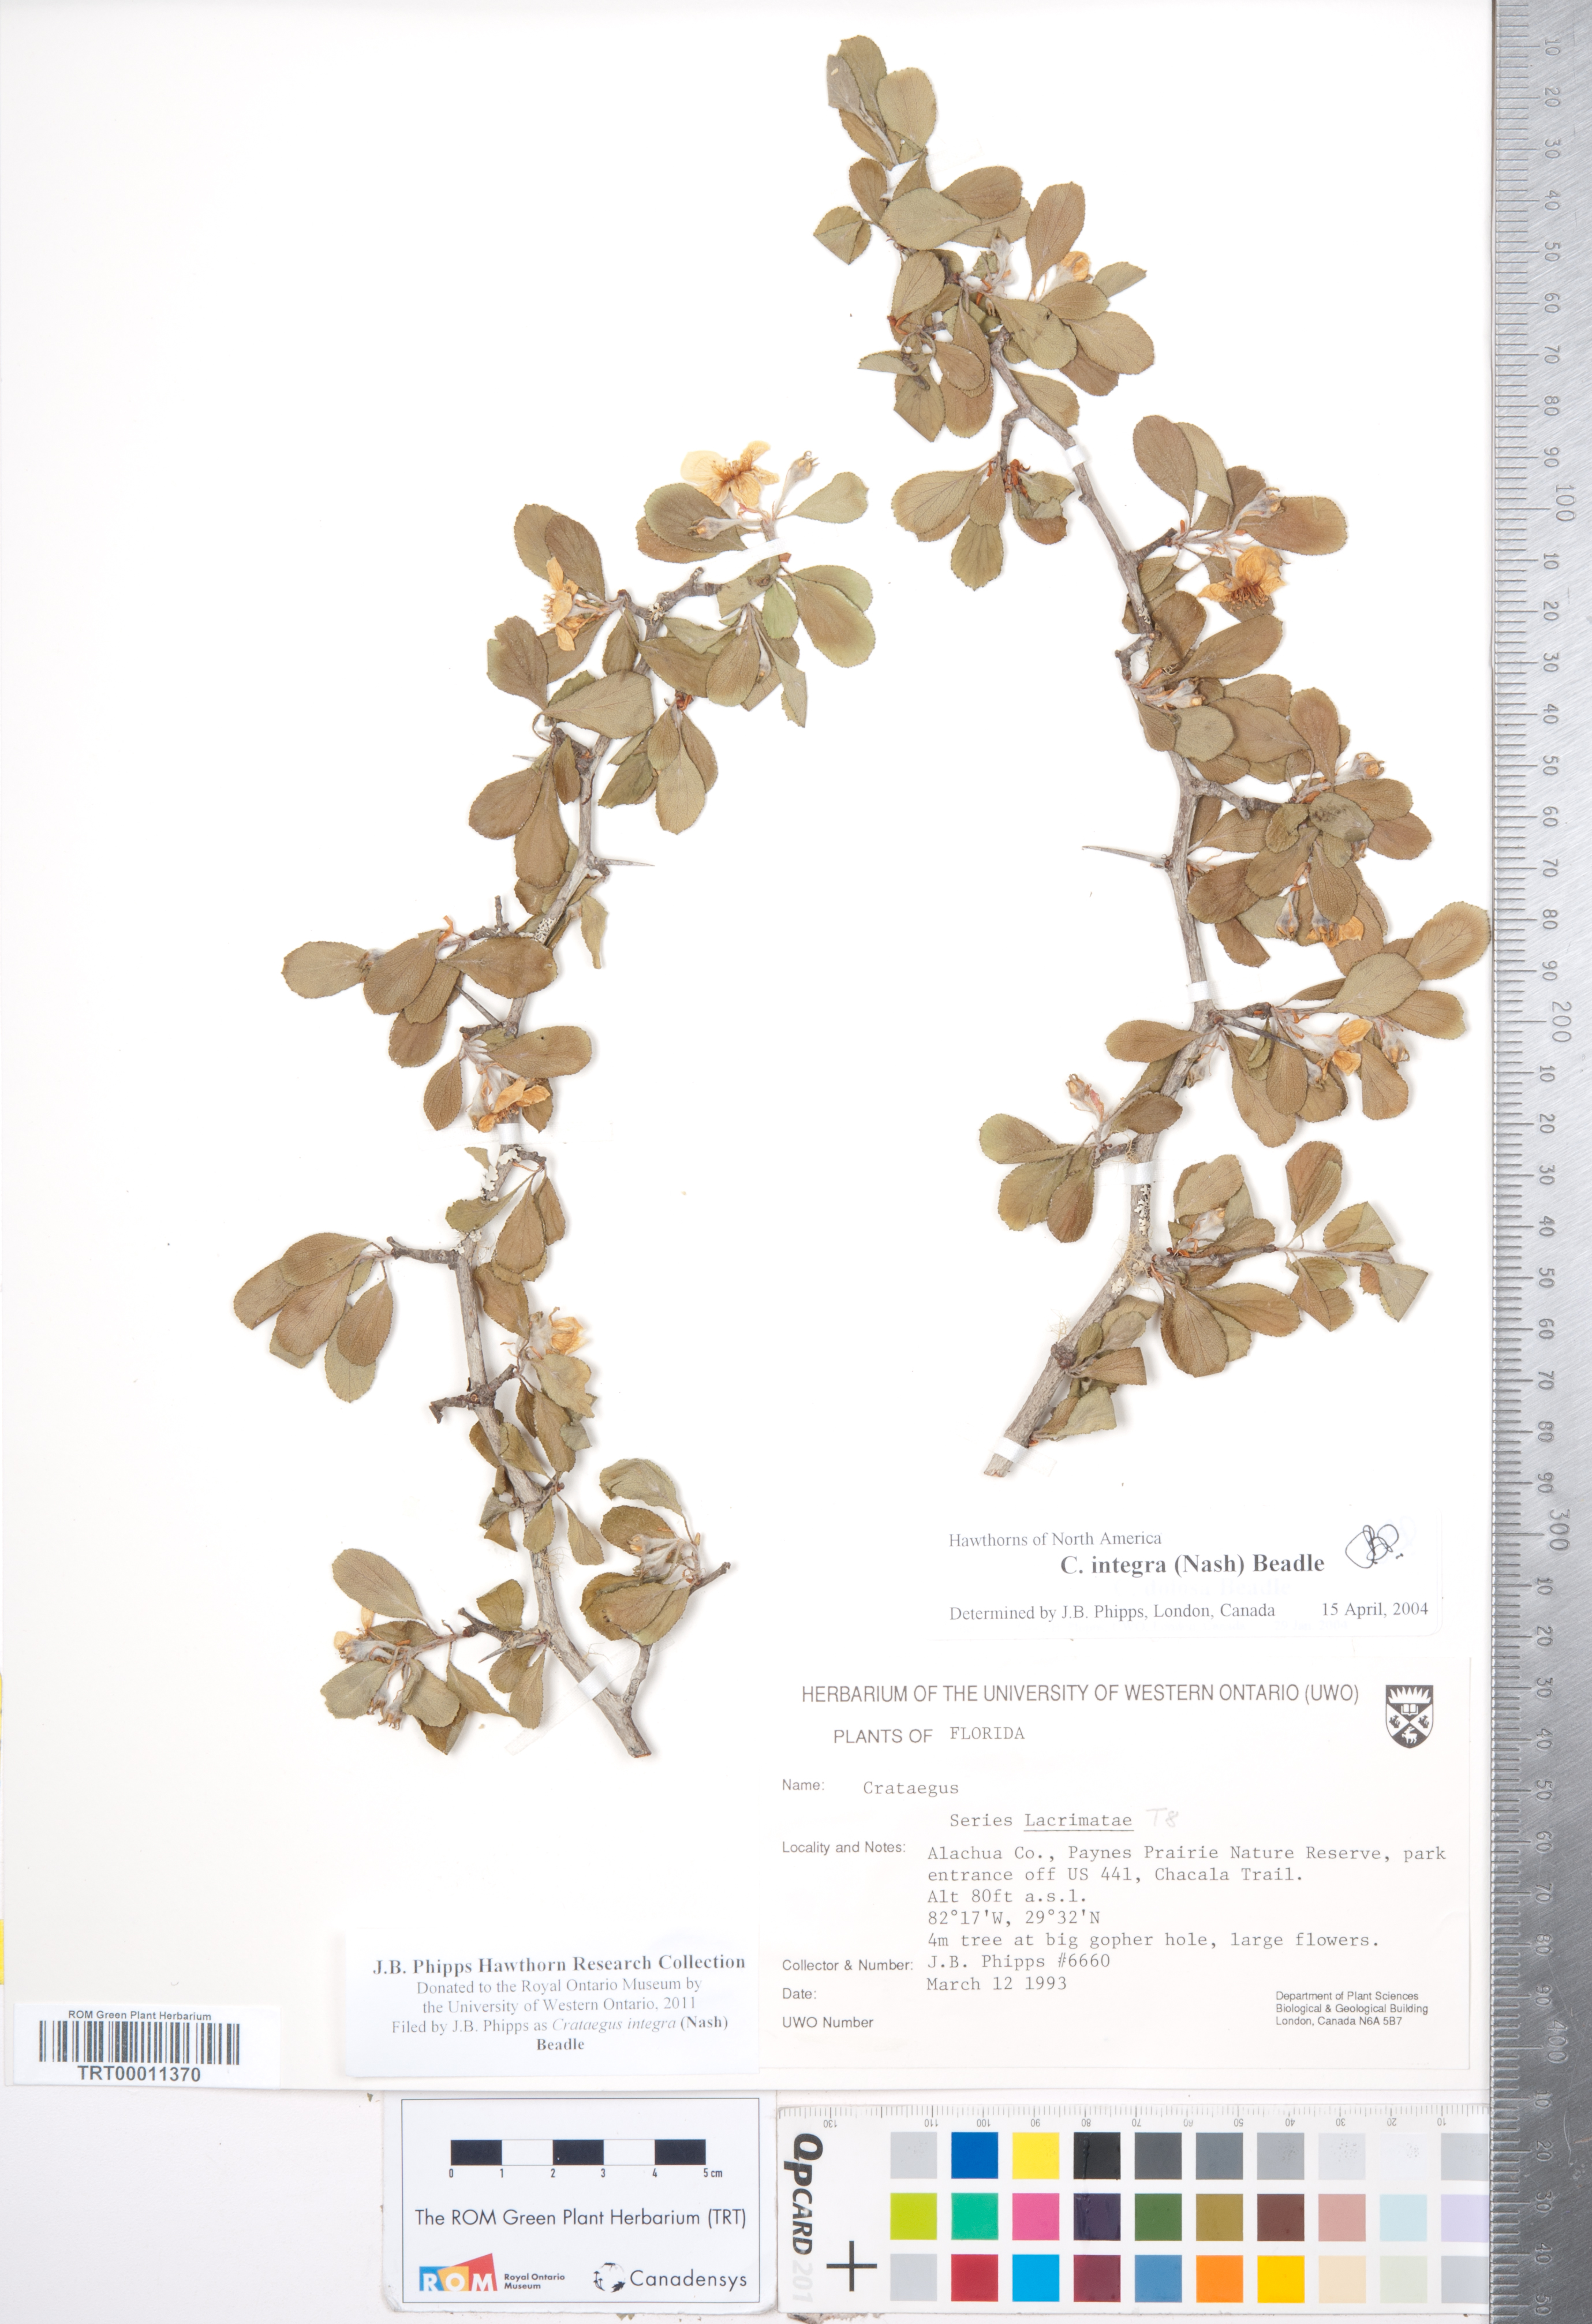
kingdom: Plantae
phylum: Tracheophyta
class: Magnoliopsida
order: Rosales
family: Rosaceae
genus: Crataegus
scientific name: Crataegus lassa
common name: Florida hawthorn
